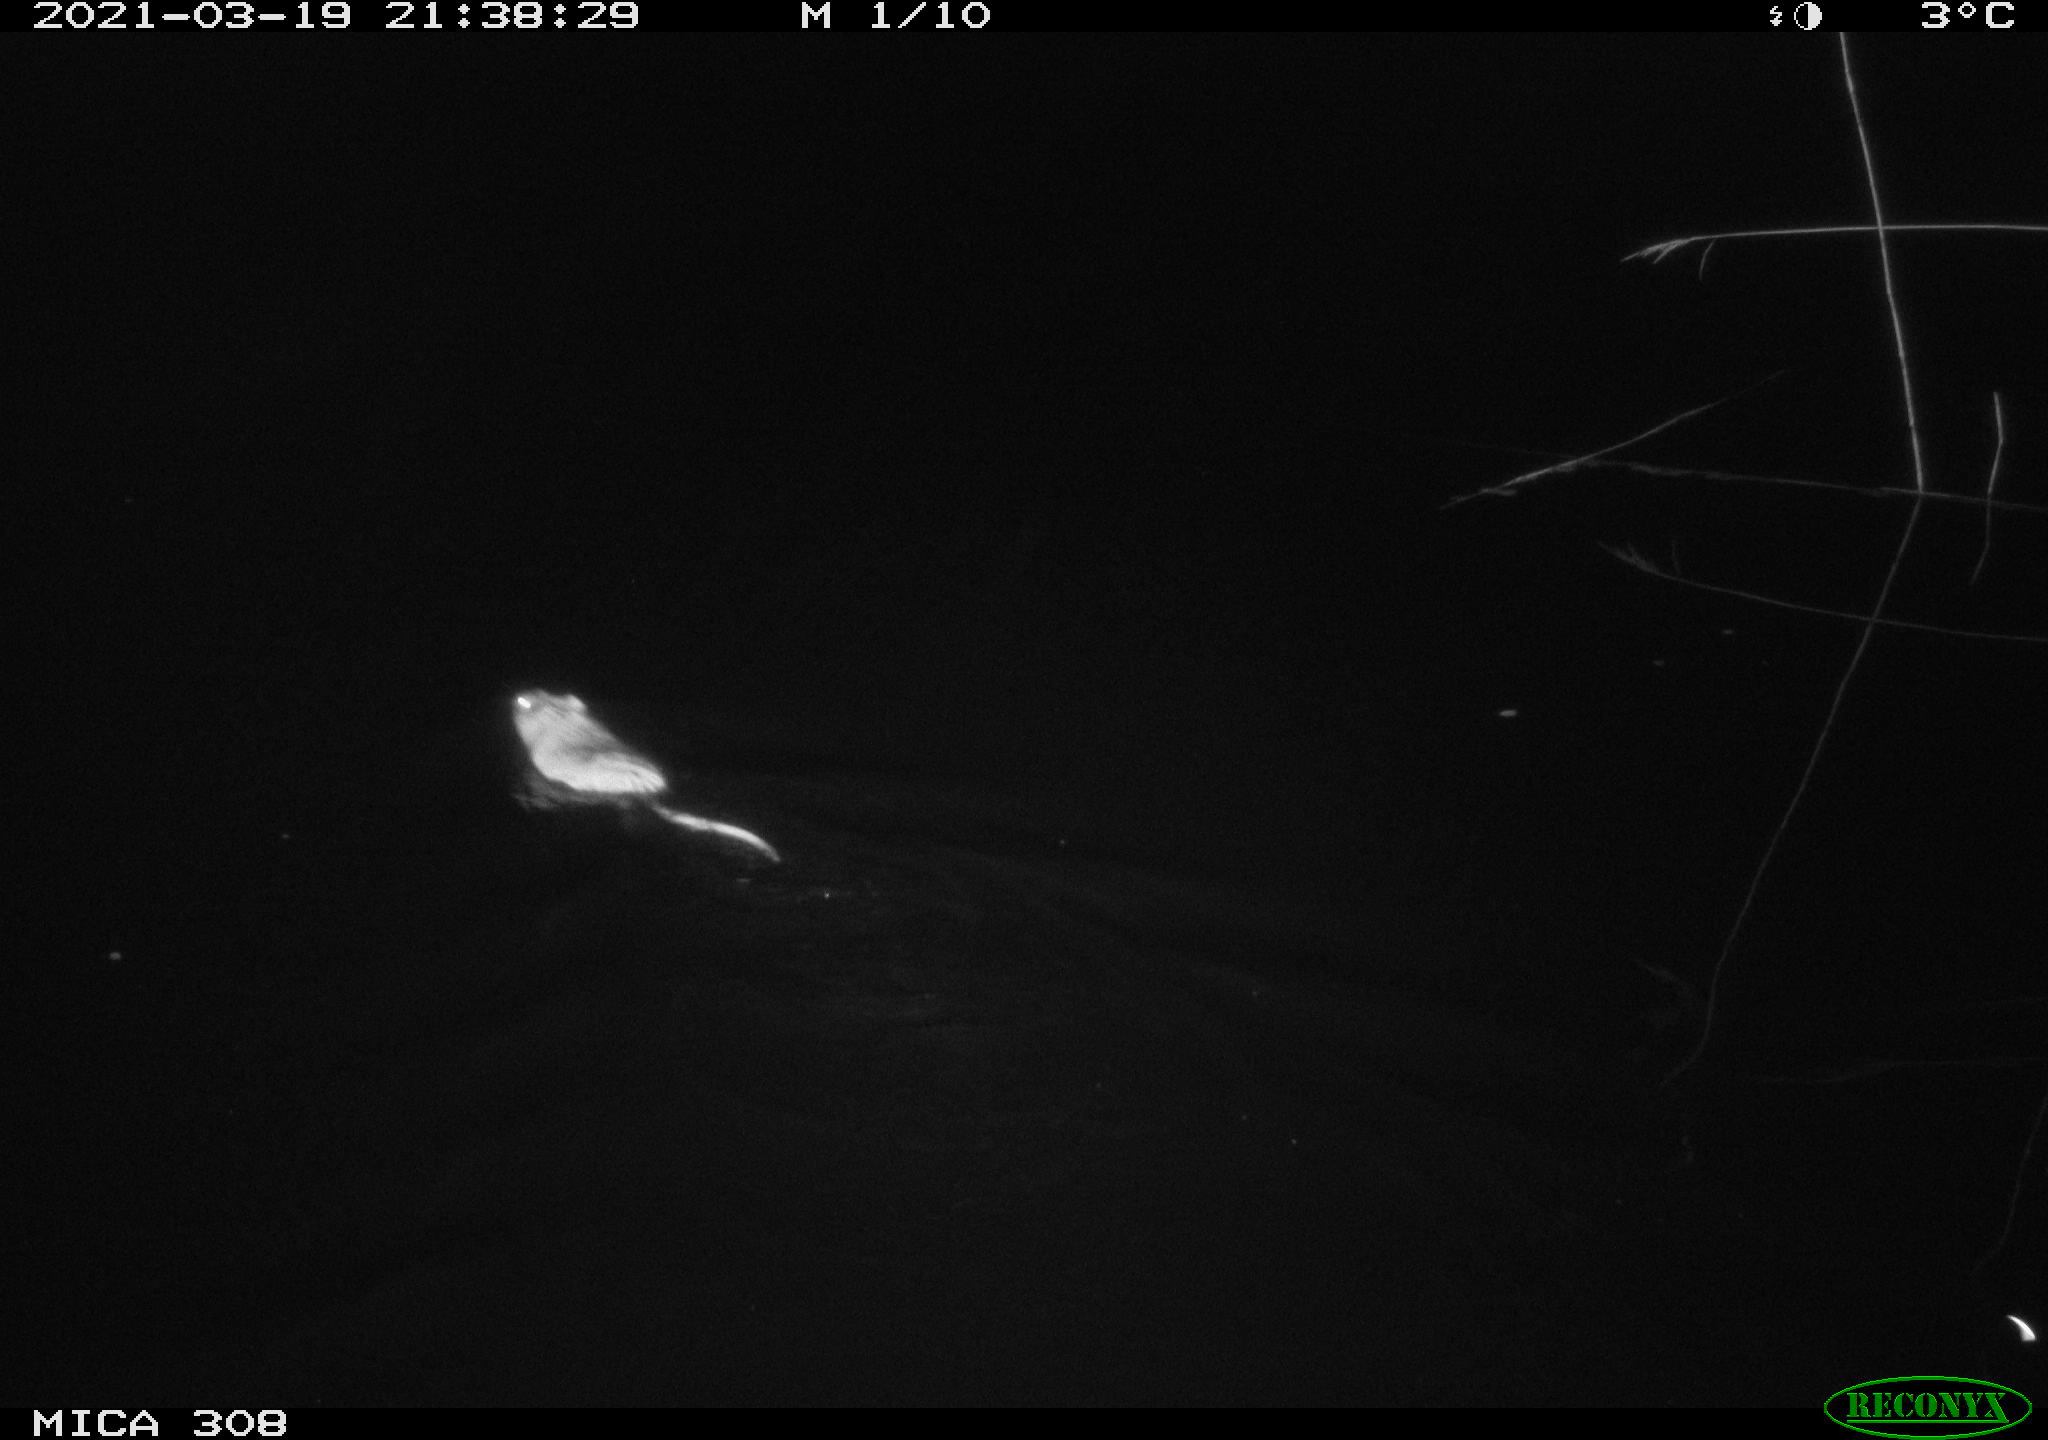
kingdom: Animalia
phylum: Chordata
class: Mammalia
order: Rodentia
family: Cricetidae
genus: Ondatra
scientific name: Ondatra zibethicus
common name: Muskrat
